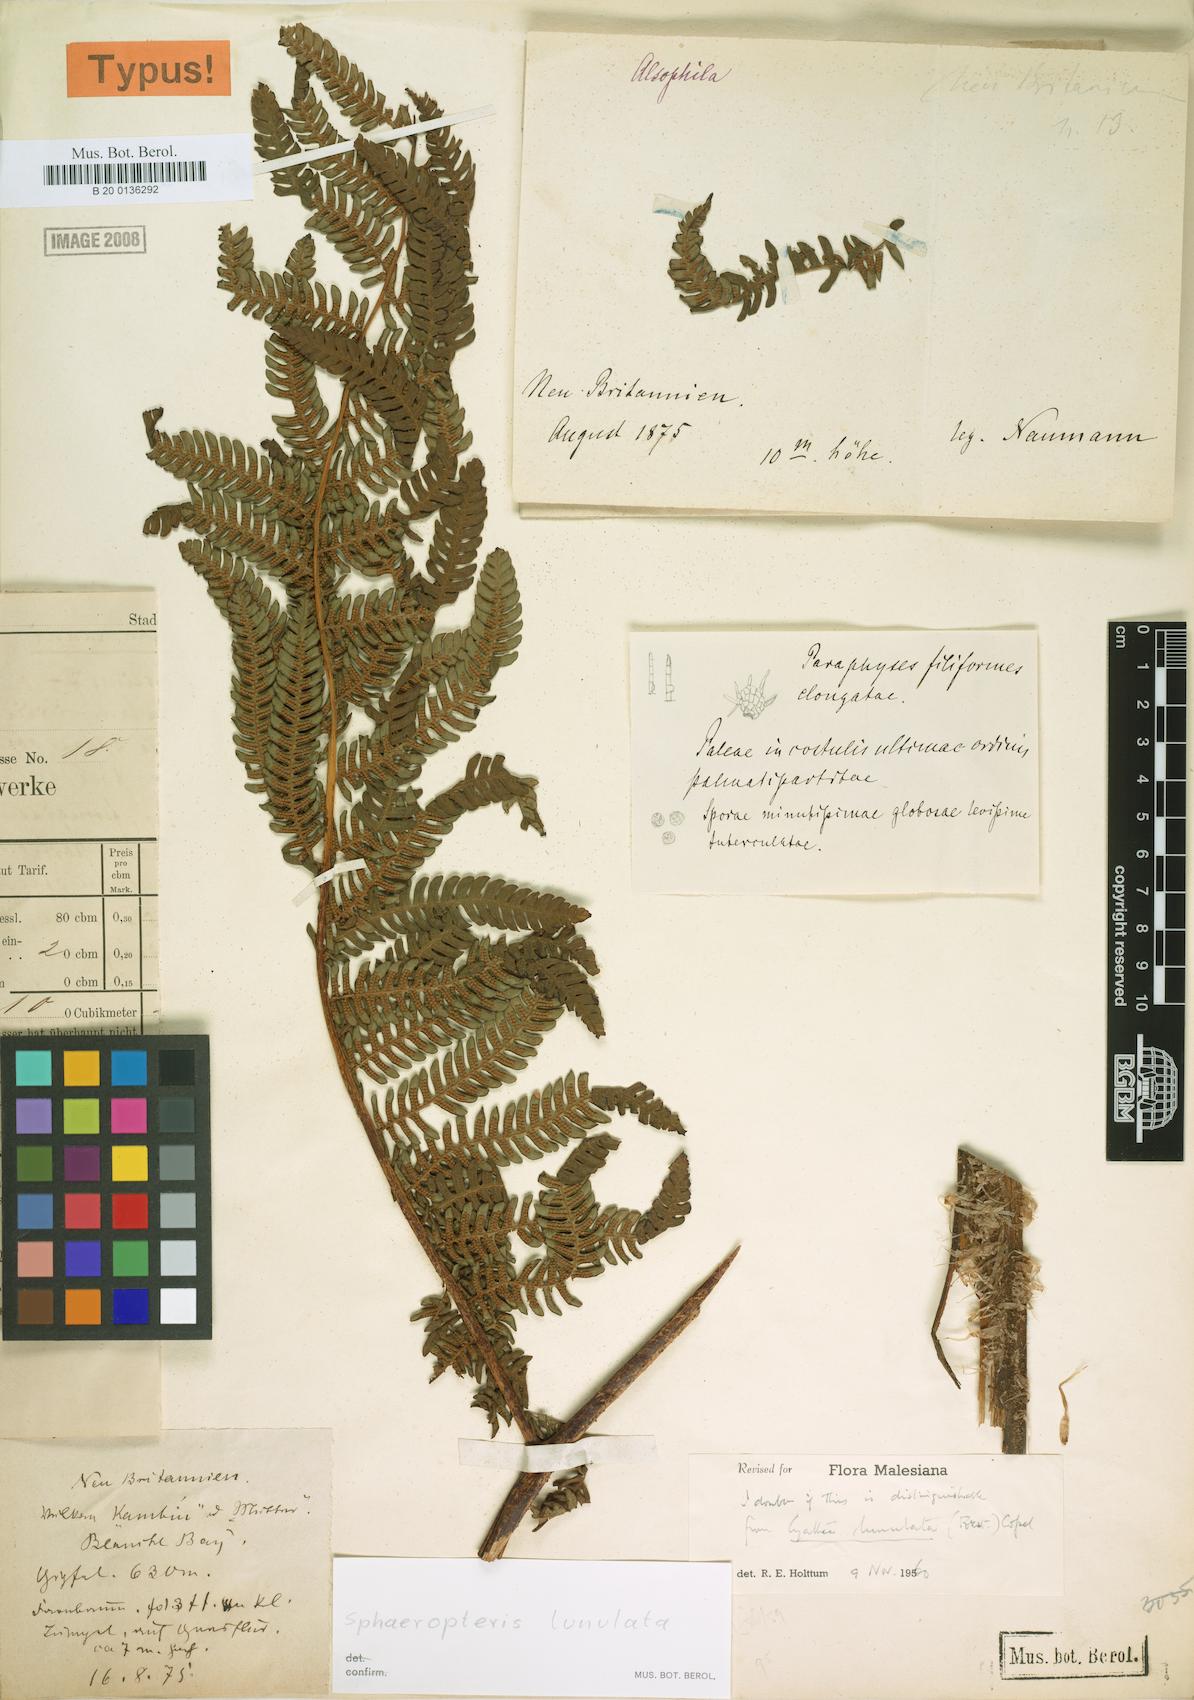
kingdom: Plantae
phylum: Tracheophyta
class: Polypodiopsida
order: Cyatheales
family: Cyatheaceae
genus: Sphaeropteris
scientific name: Sphaeropteris lunulata
